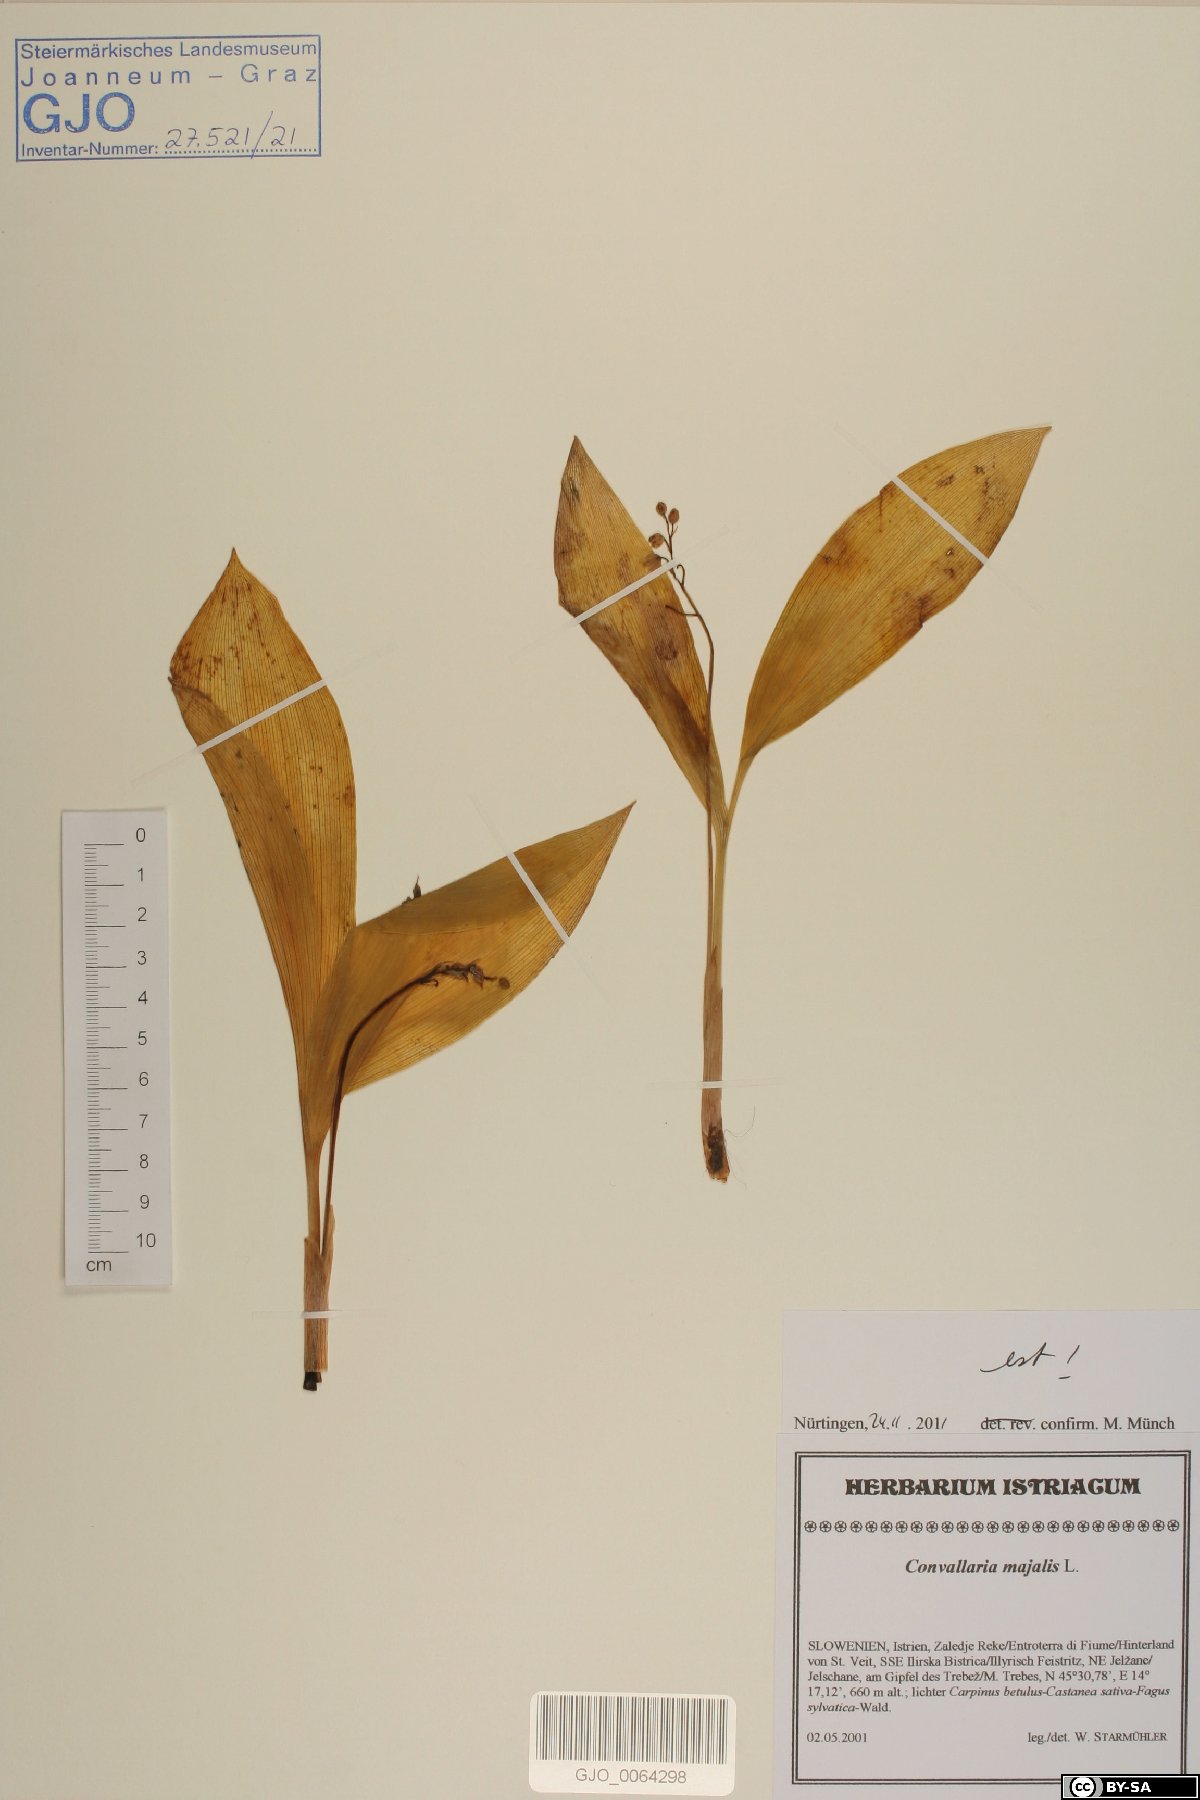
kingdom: Plantae
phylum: Tracheophyta
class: Liliopsida
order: Asparagales
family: Asparagaceae
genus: Convallaria
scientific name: Convallaria majalis
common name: Lily-of-the-valley
